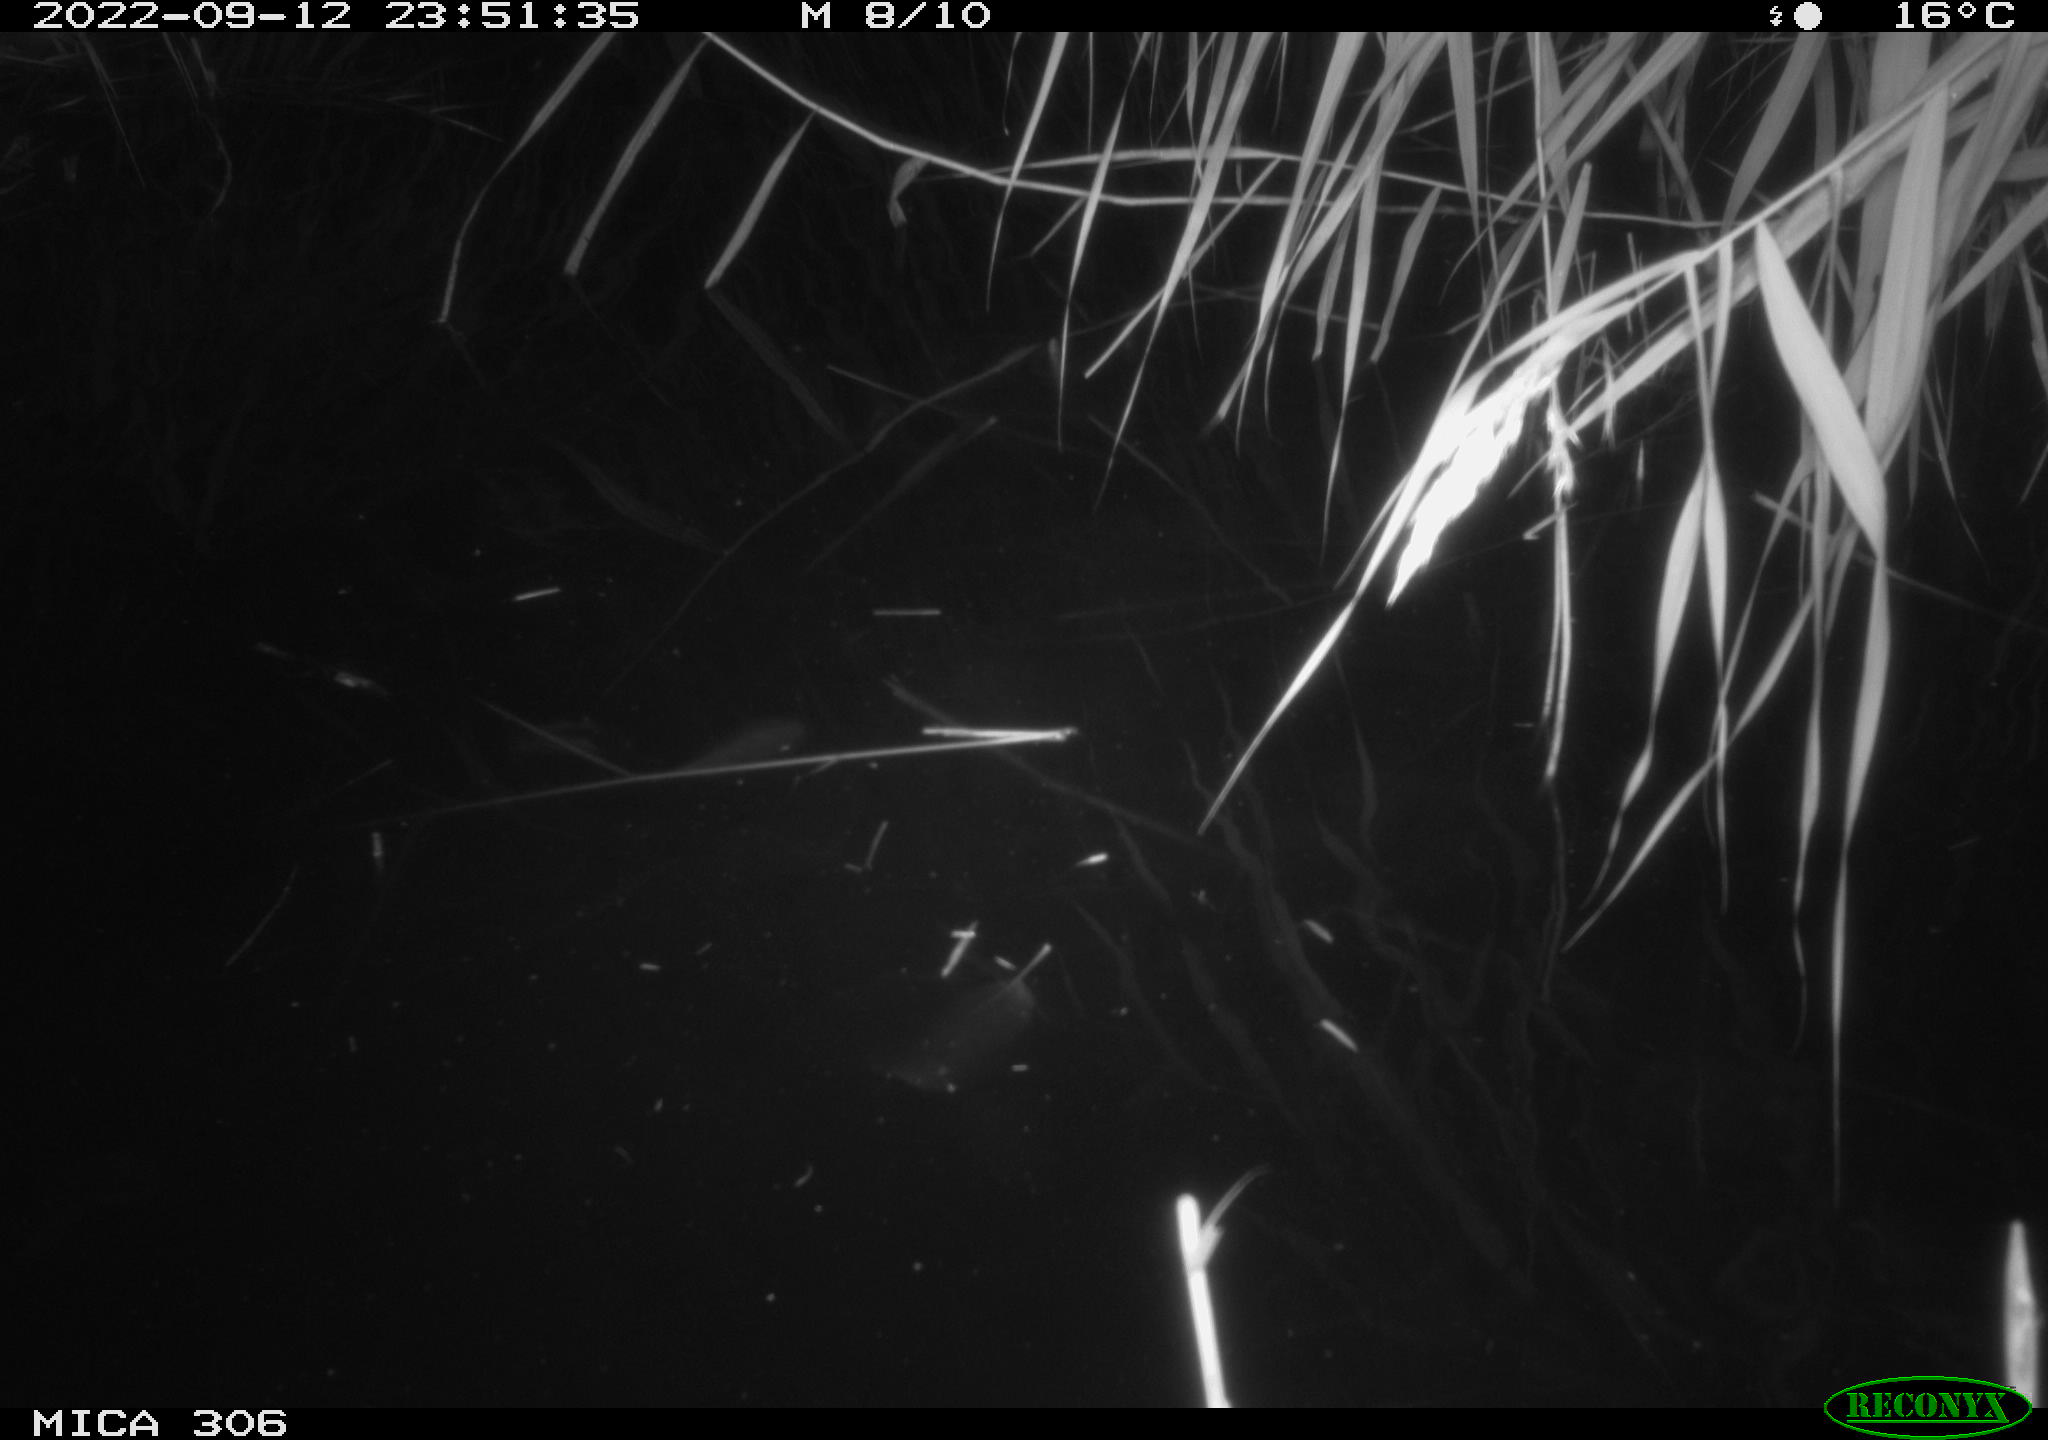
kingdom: Animalia
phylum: Chordata
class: Mammalia
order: Rodentia
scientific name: Rodentia
